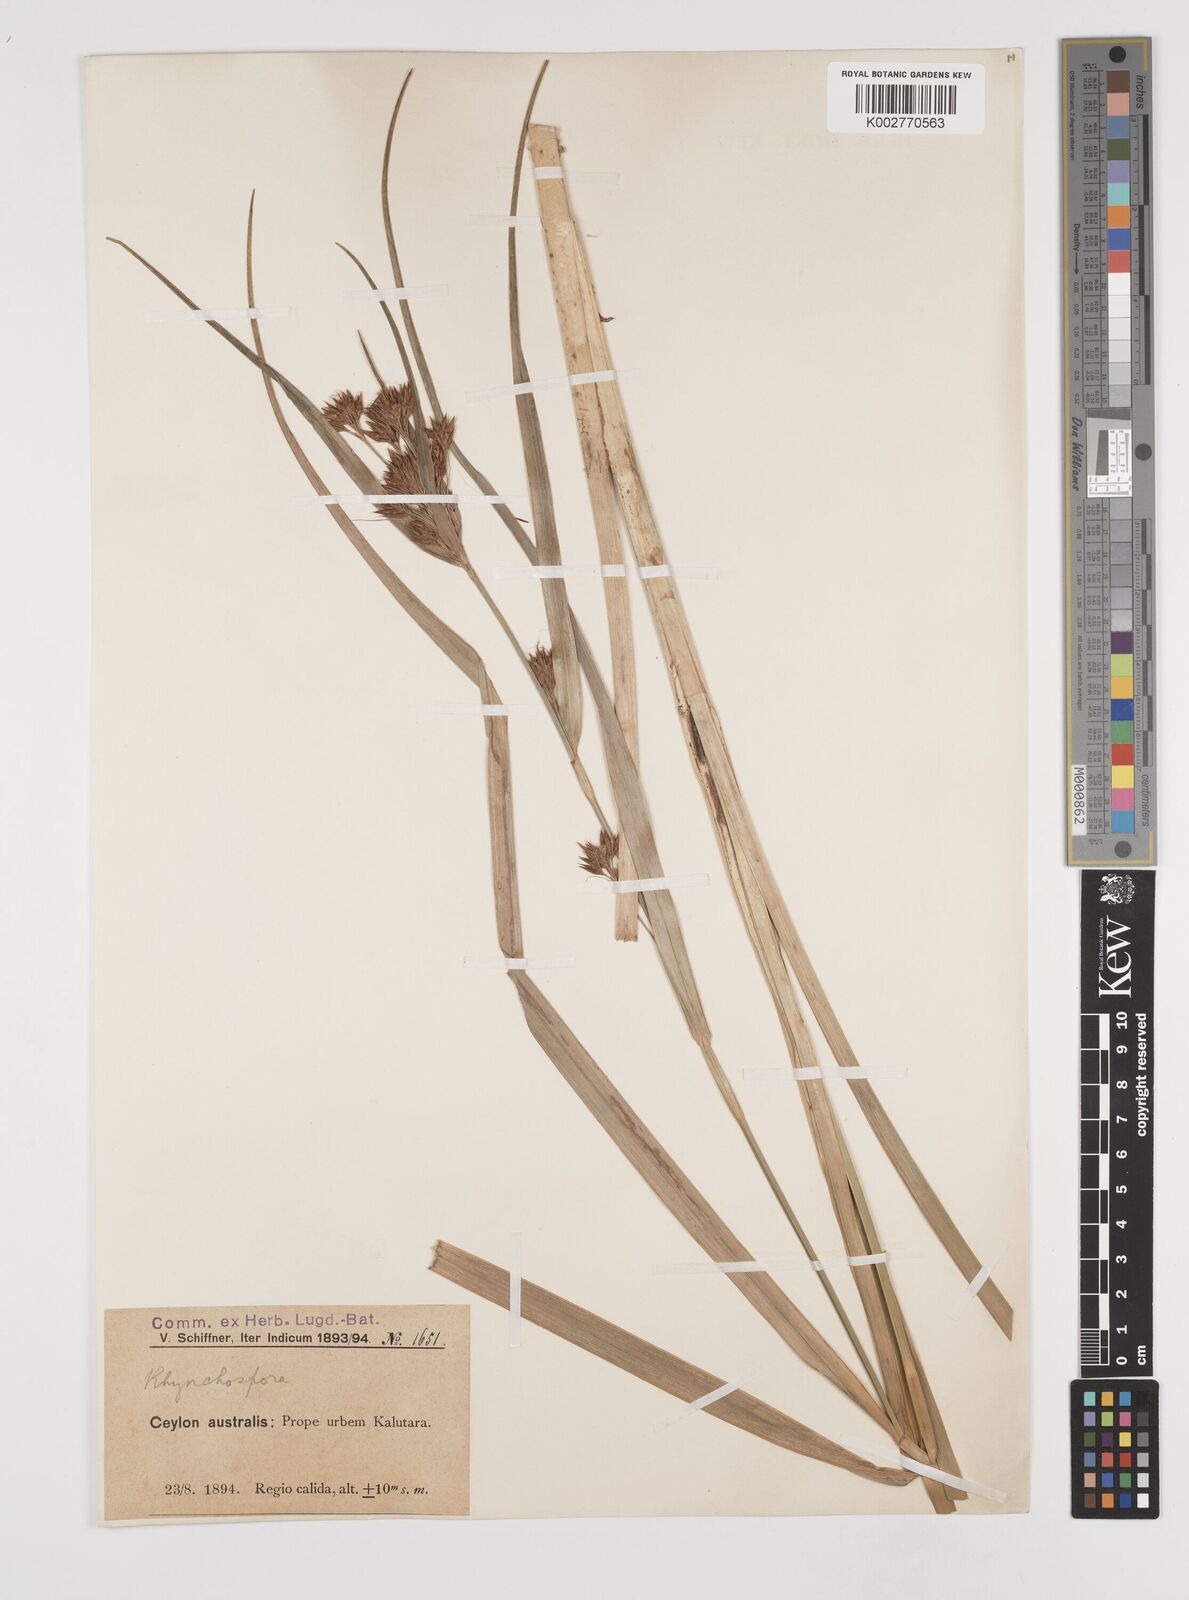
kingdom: Plantae
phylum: Tracheophyta
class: Liliopsida
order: Poales
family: Cyperaceae
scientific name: Cyperaceae
